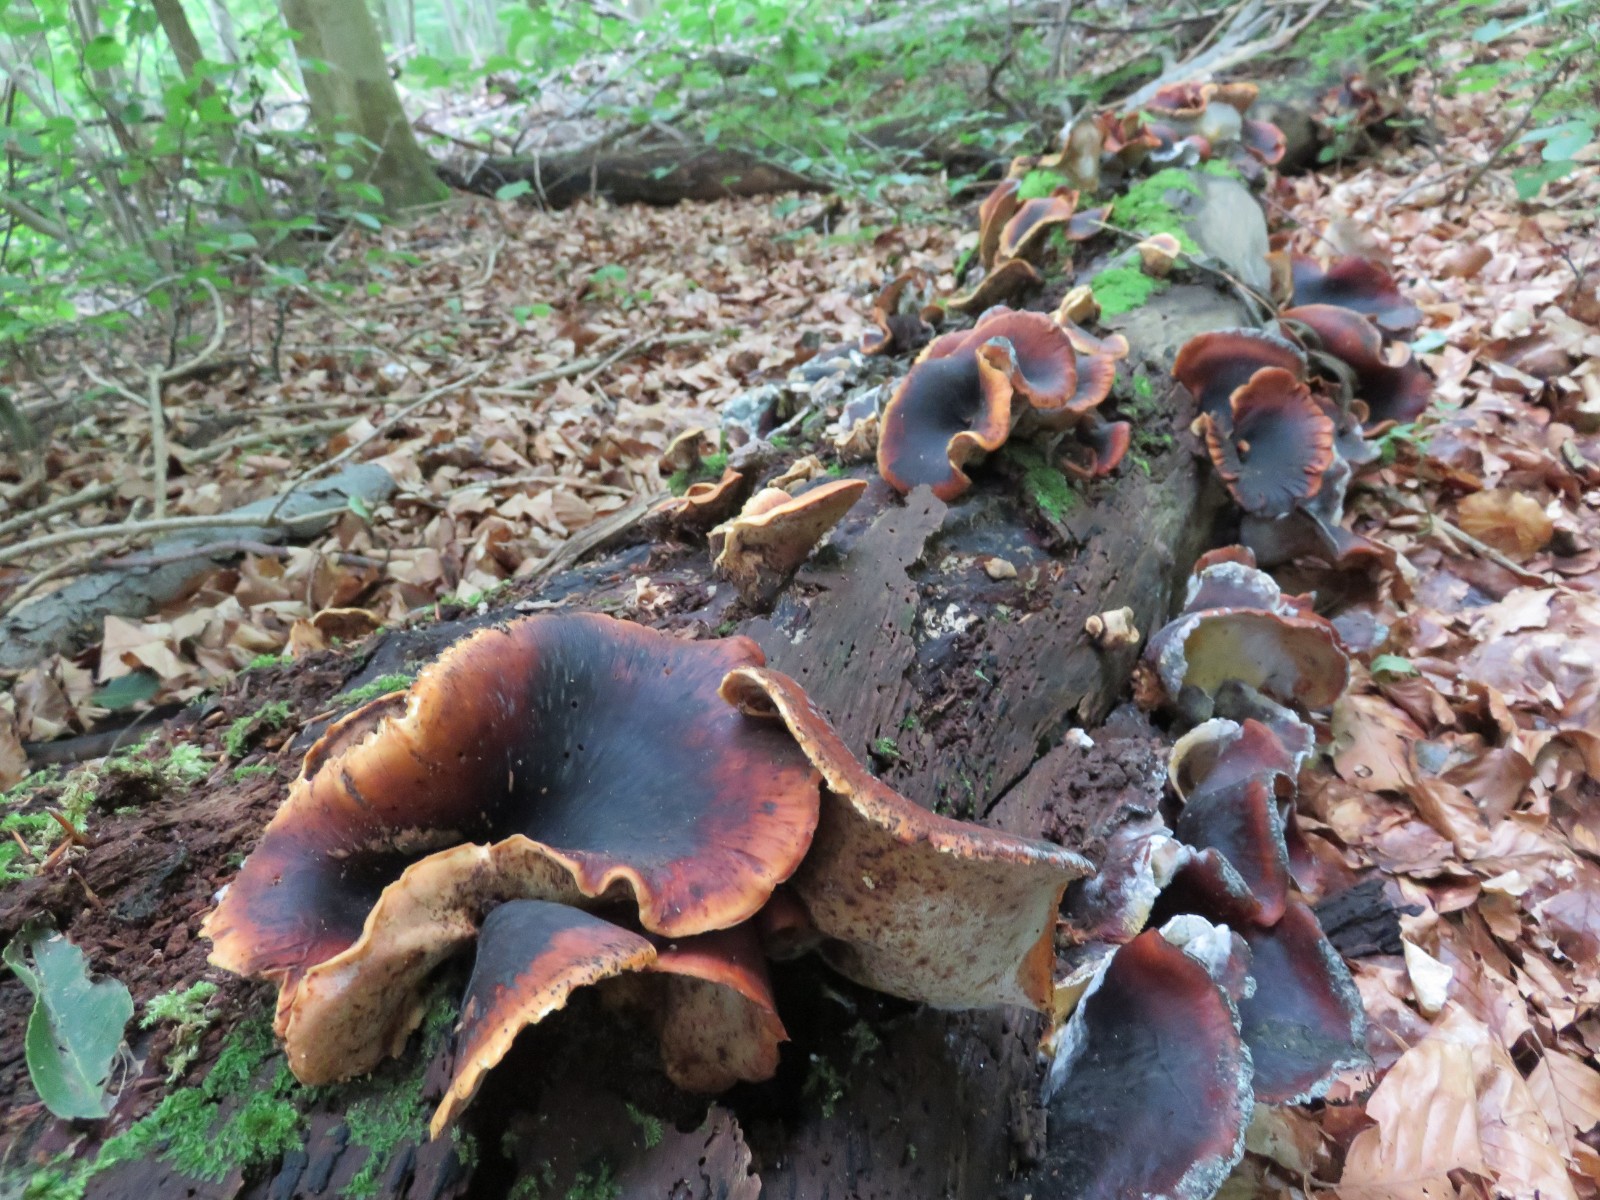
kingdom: Fungi
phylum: Basidiomycota
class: Agaricomycetes
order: Polyporales
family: Polyporaceae
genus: Picipes
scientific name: Picipes badius
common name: kastaniebrun stilkporesvamp
